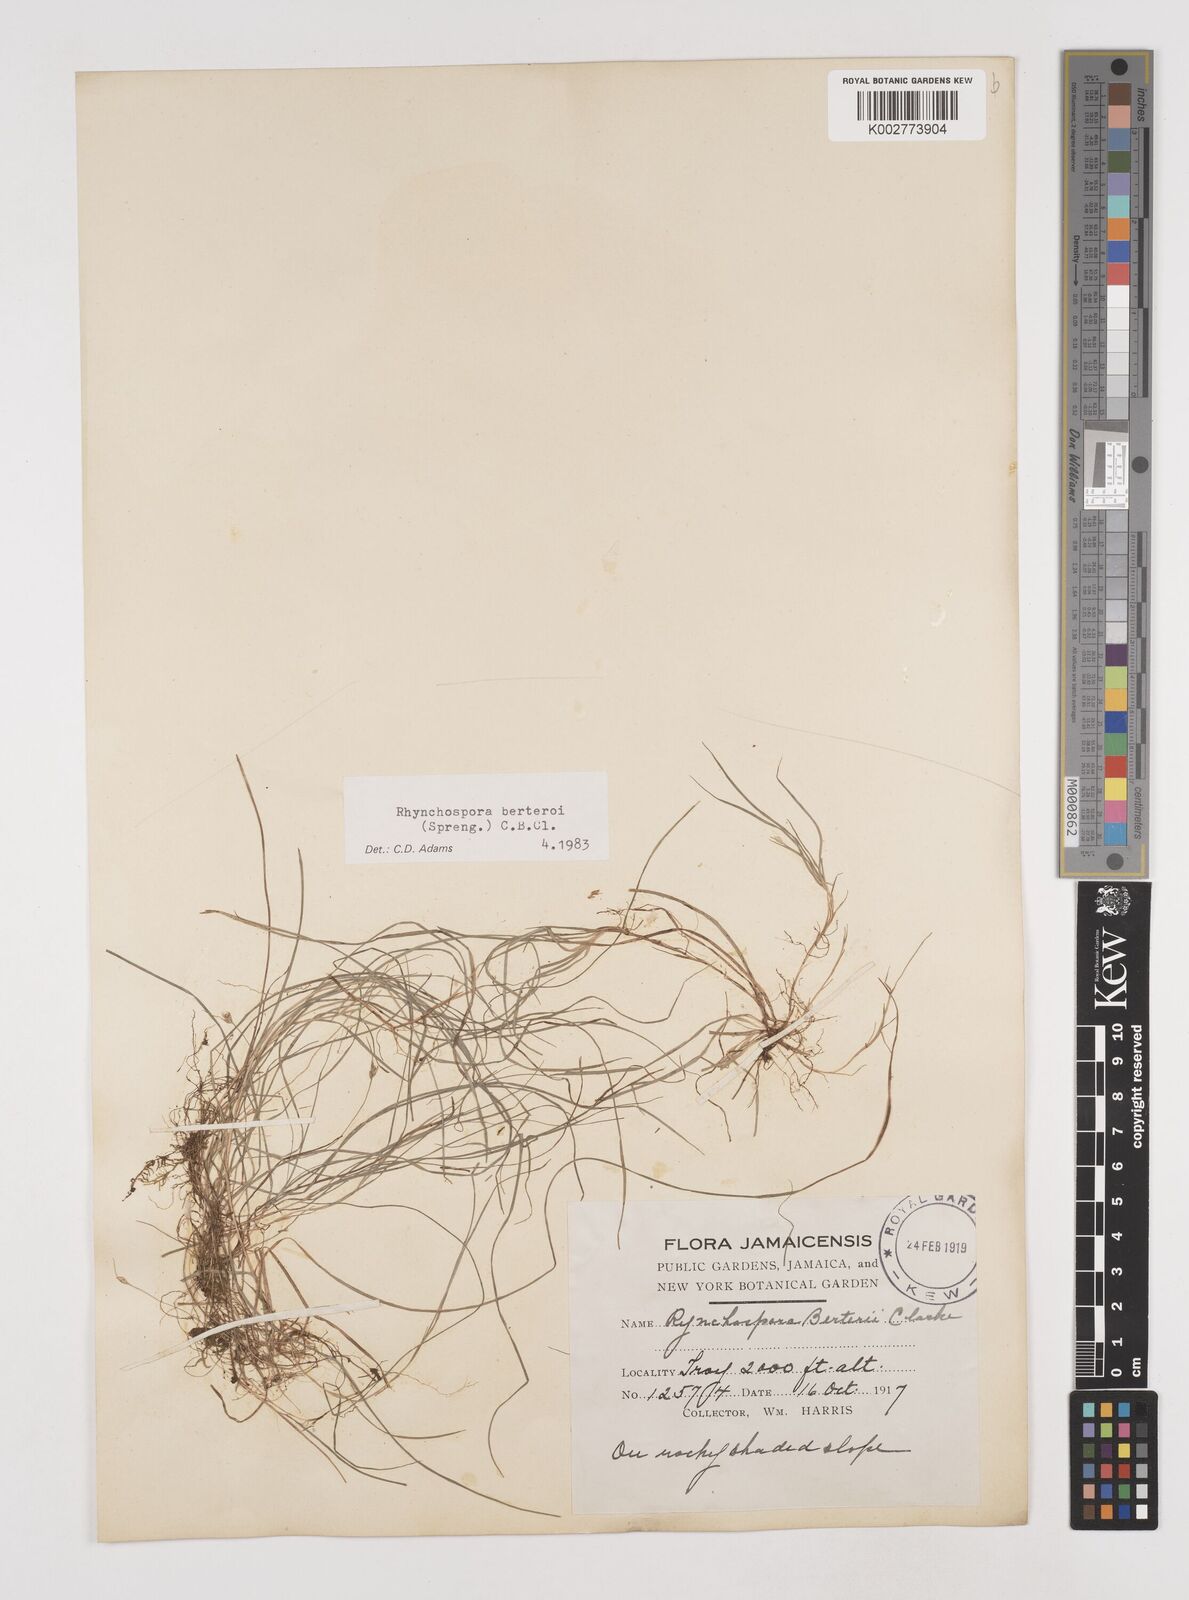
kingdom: Plantae
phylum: Tracheophyta
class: Liliopsida
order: Poales
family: Cyperaceae
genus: Rhynchospora
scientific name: Rhynchospora berteroi
